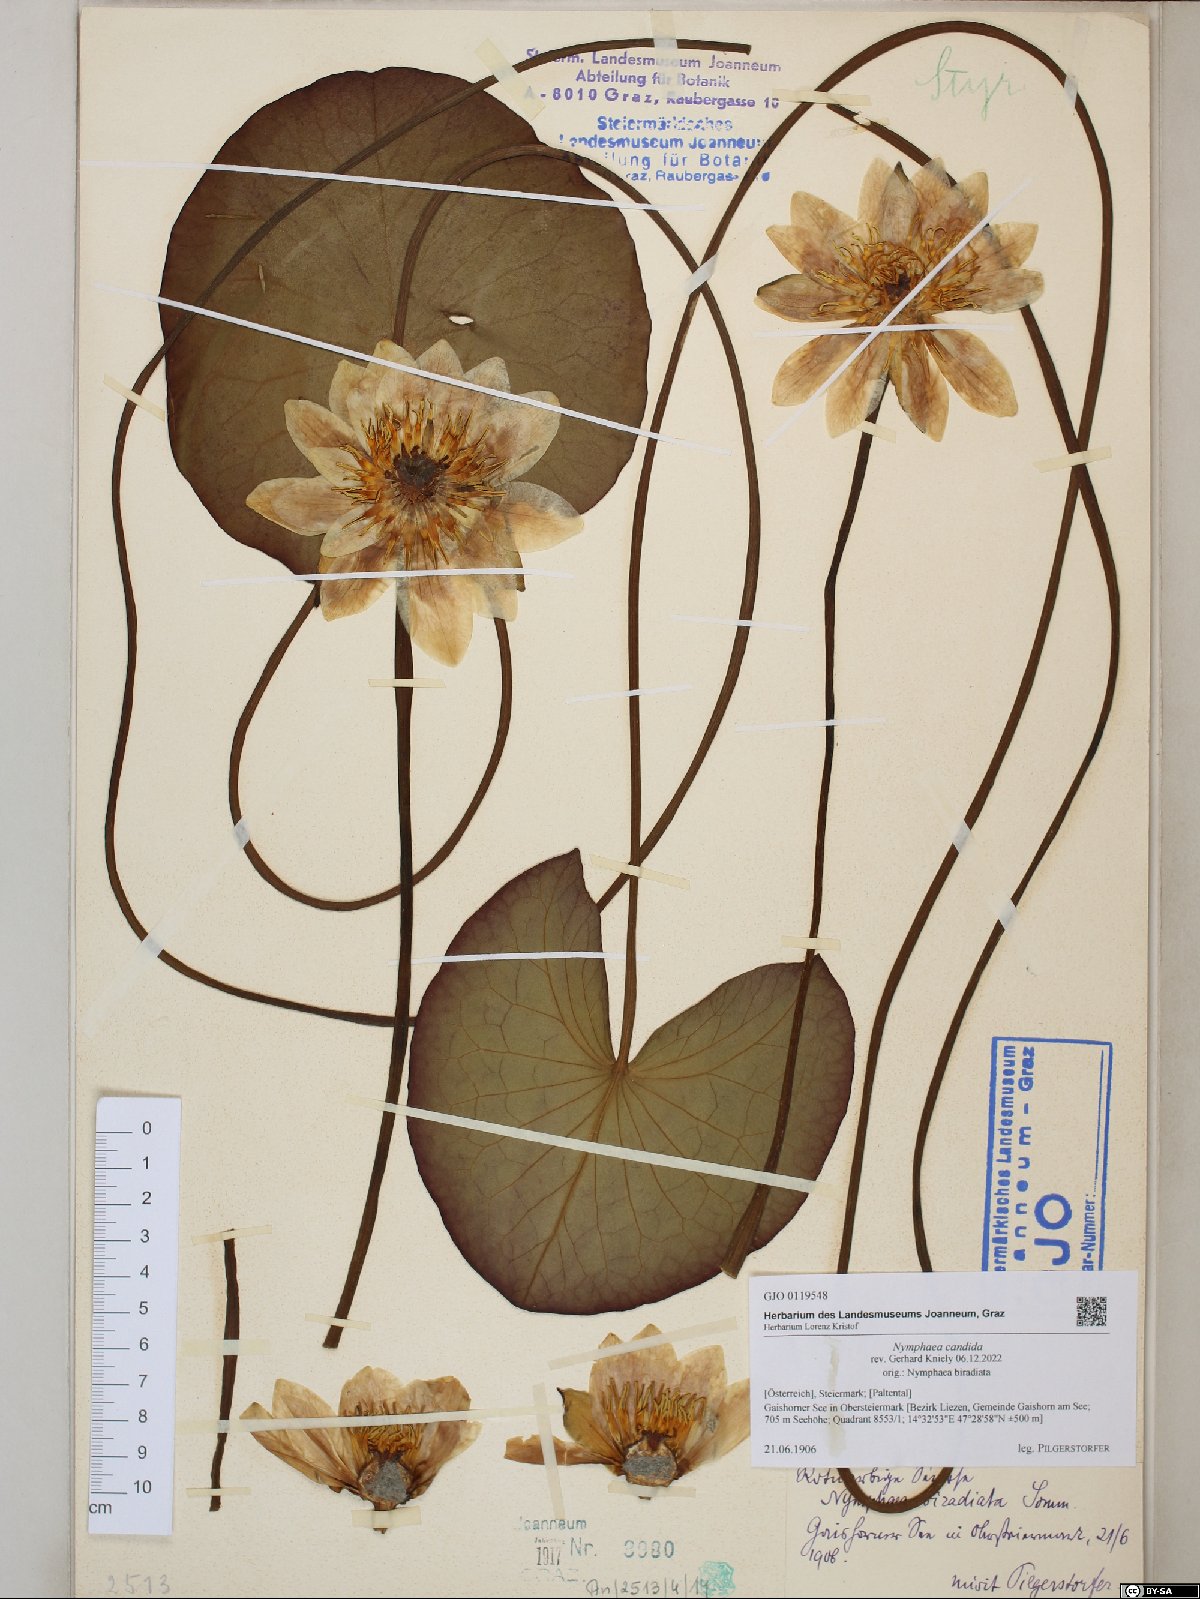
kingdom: Plantae
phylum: Tracheophyta
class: Magnoliopsida
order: Nymphaeales
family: Nymphaeaceae
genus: Nymphaea
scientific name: Nymphaea candida
